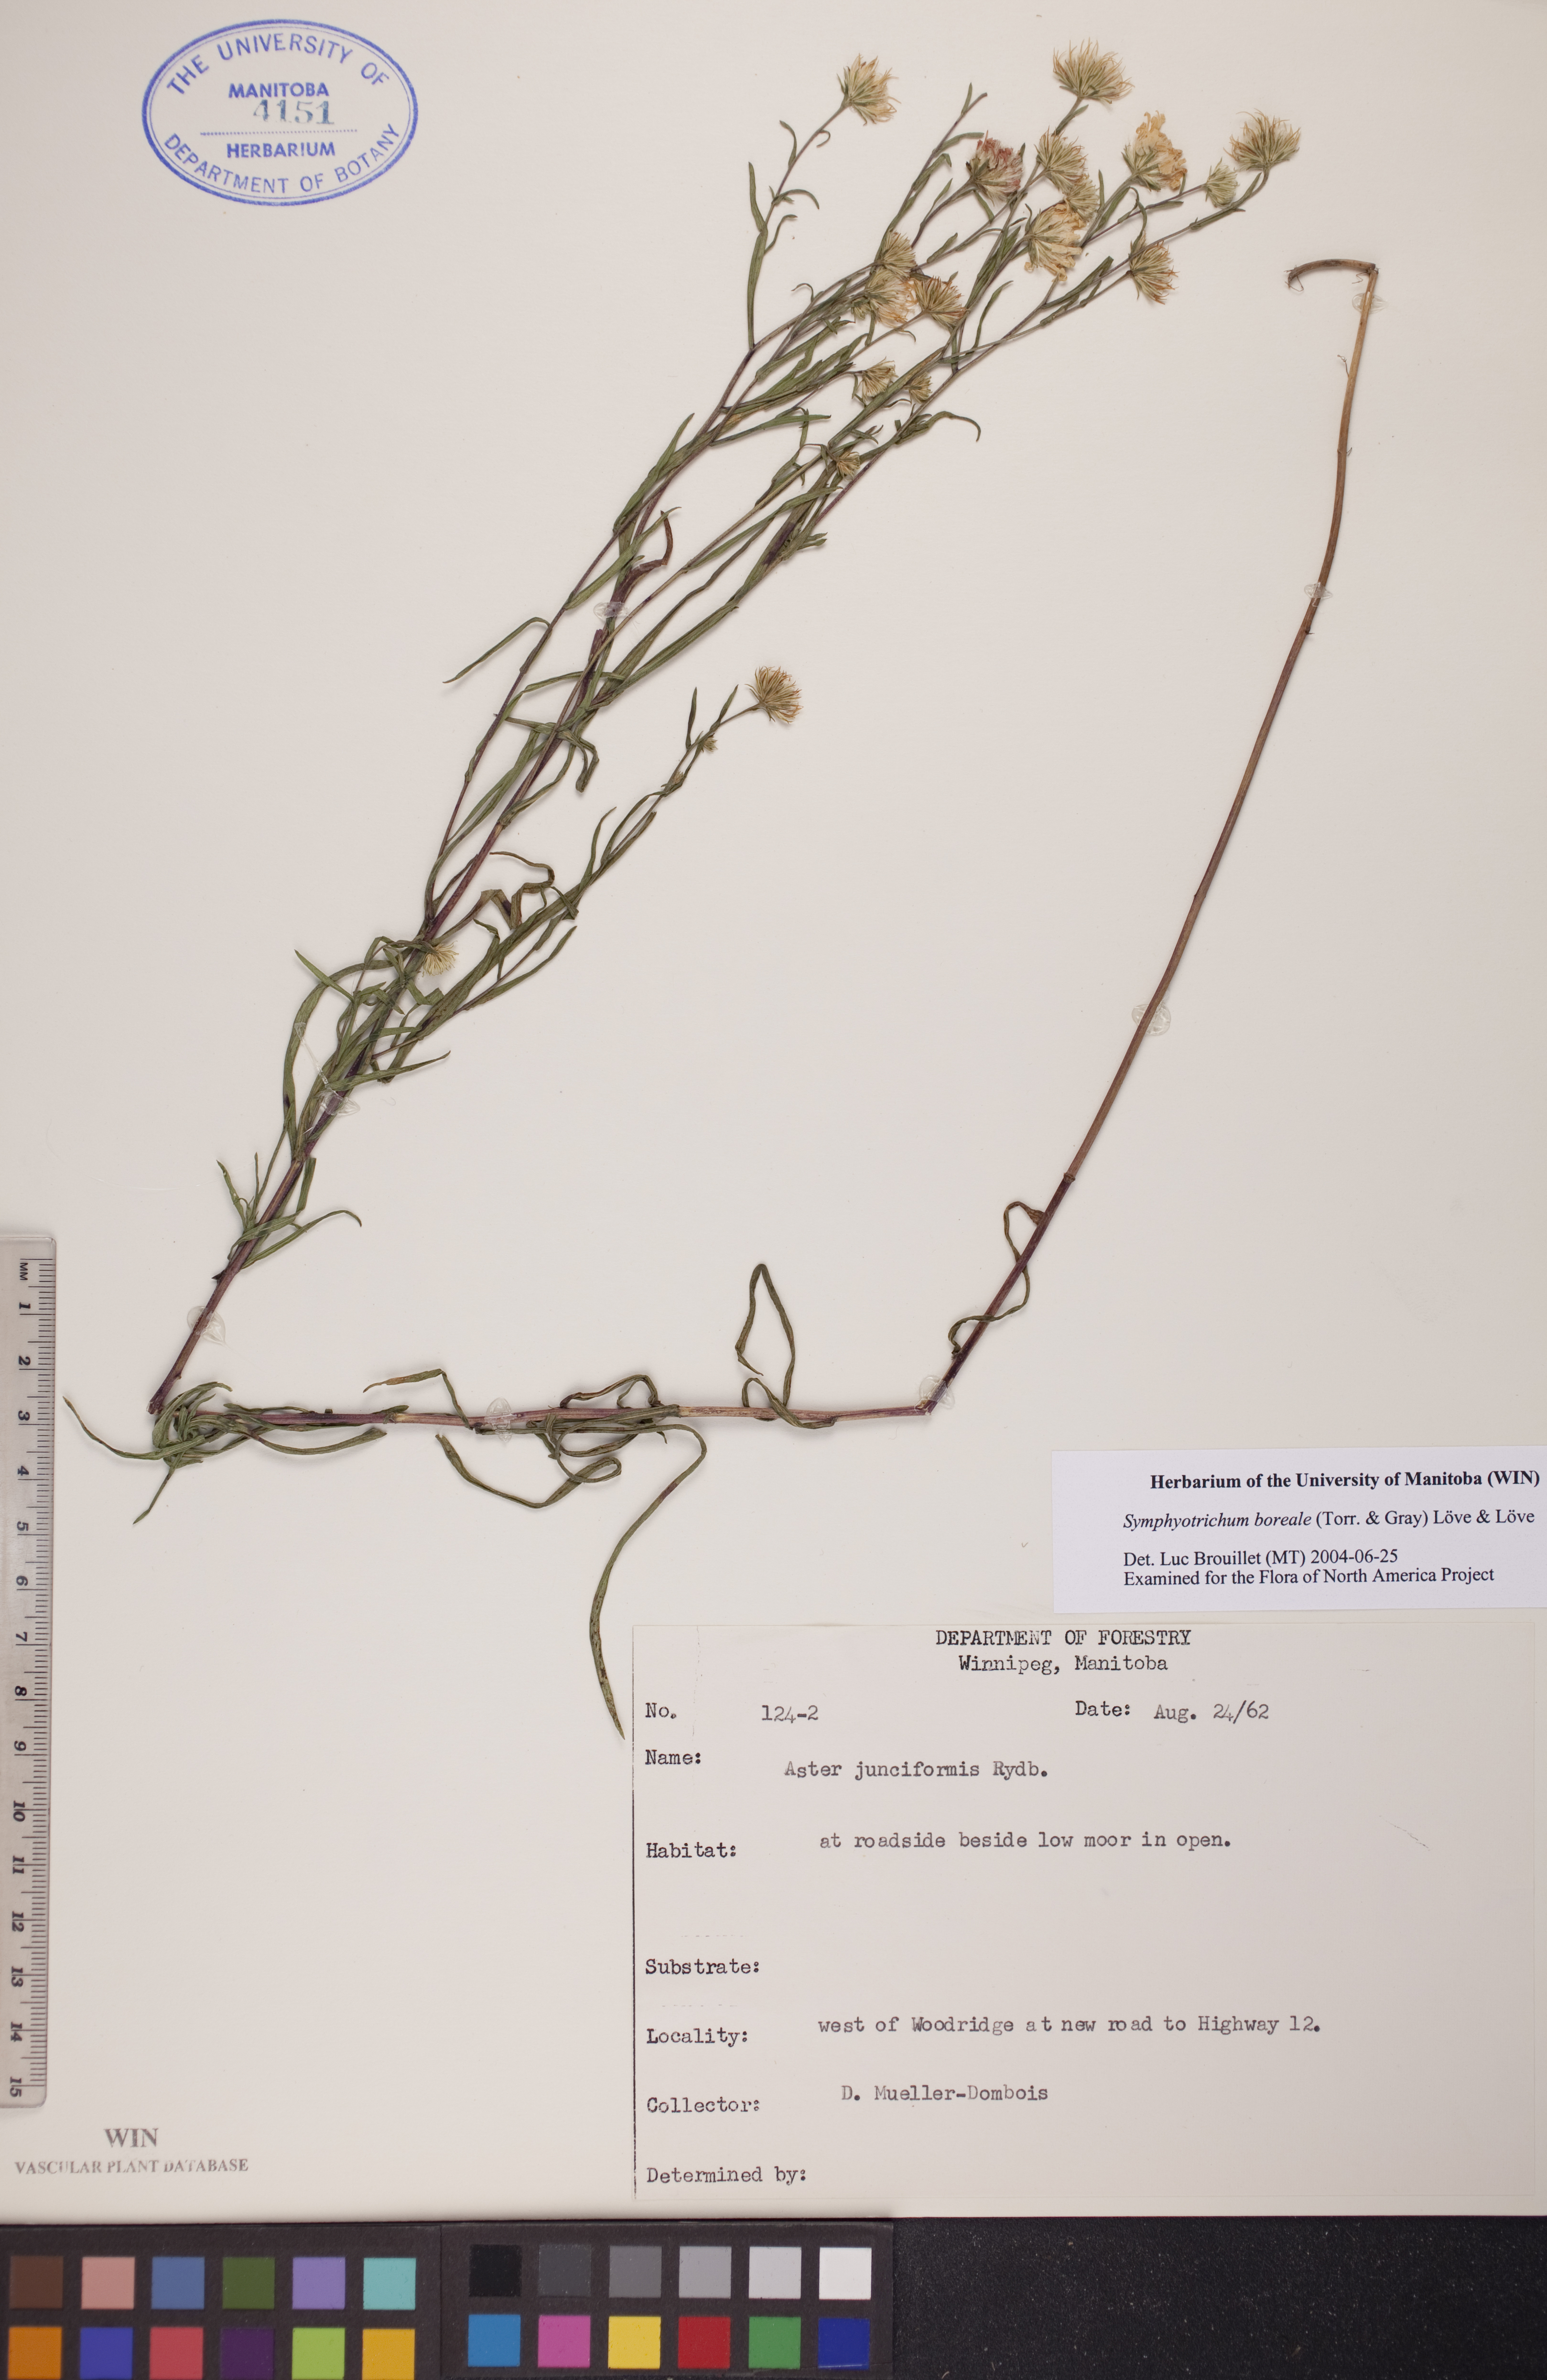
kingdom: Plantae
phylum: Tracheophyta
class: Magnoliopsida
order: Asterales
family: Asteraceae
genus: Symphyotrichum
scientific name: Symphyotrichum boreale
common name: Northern bog aster
